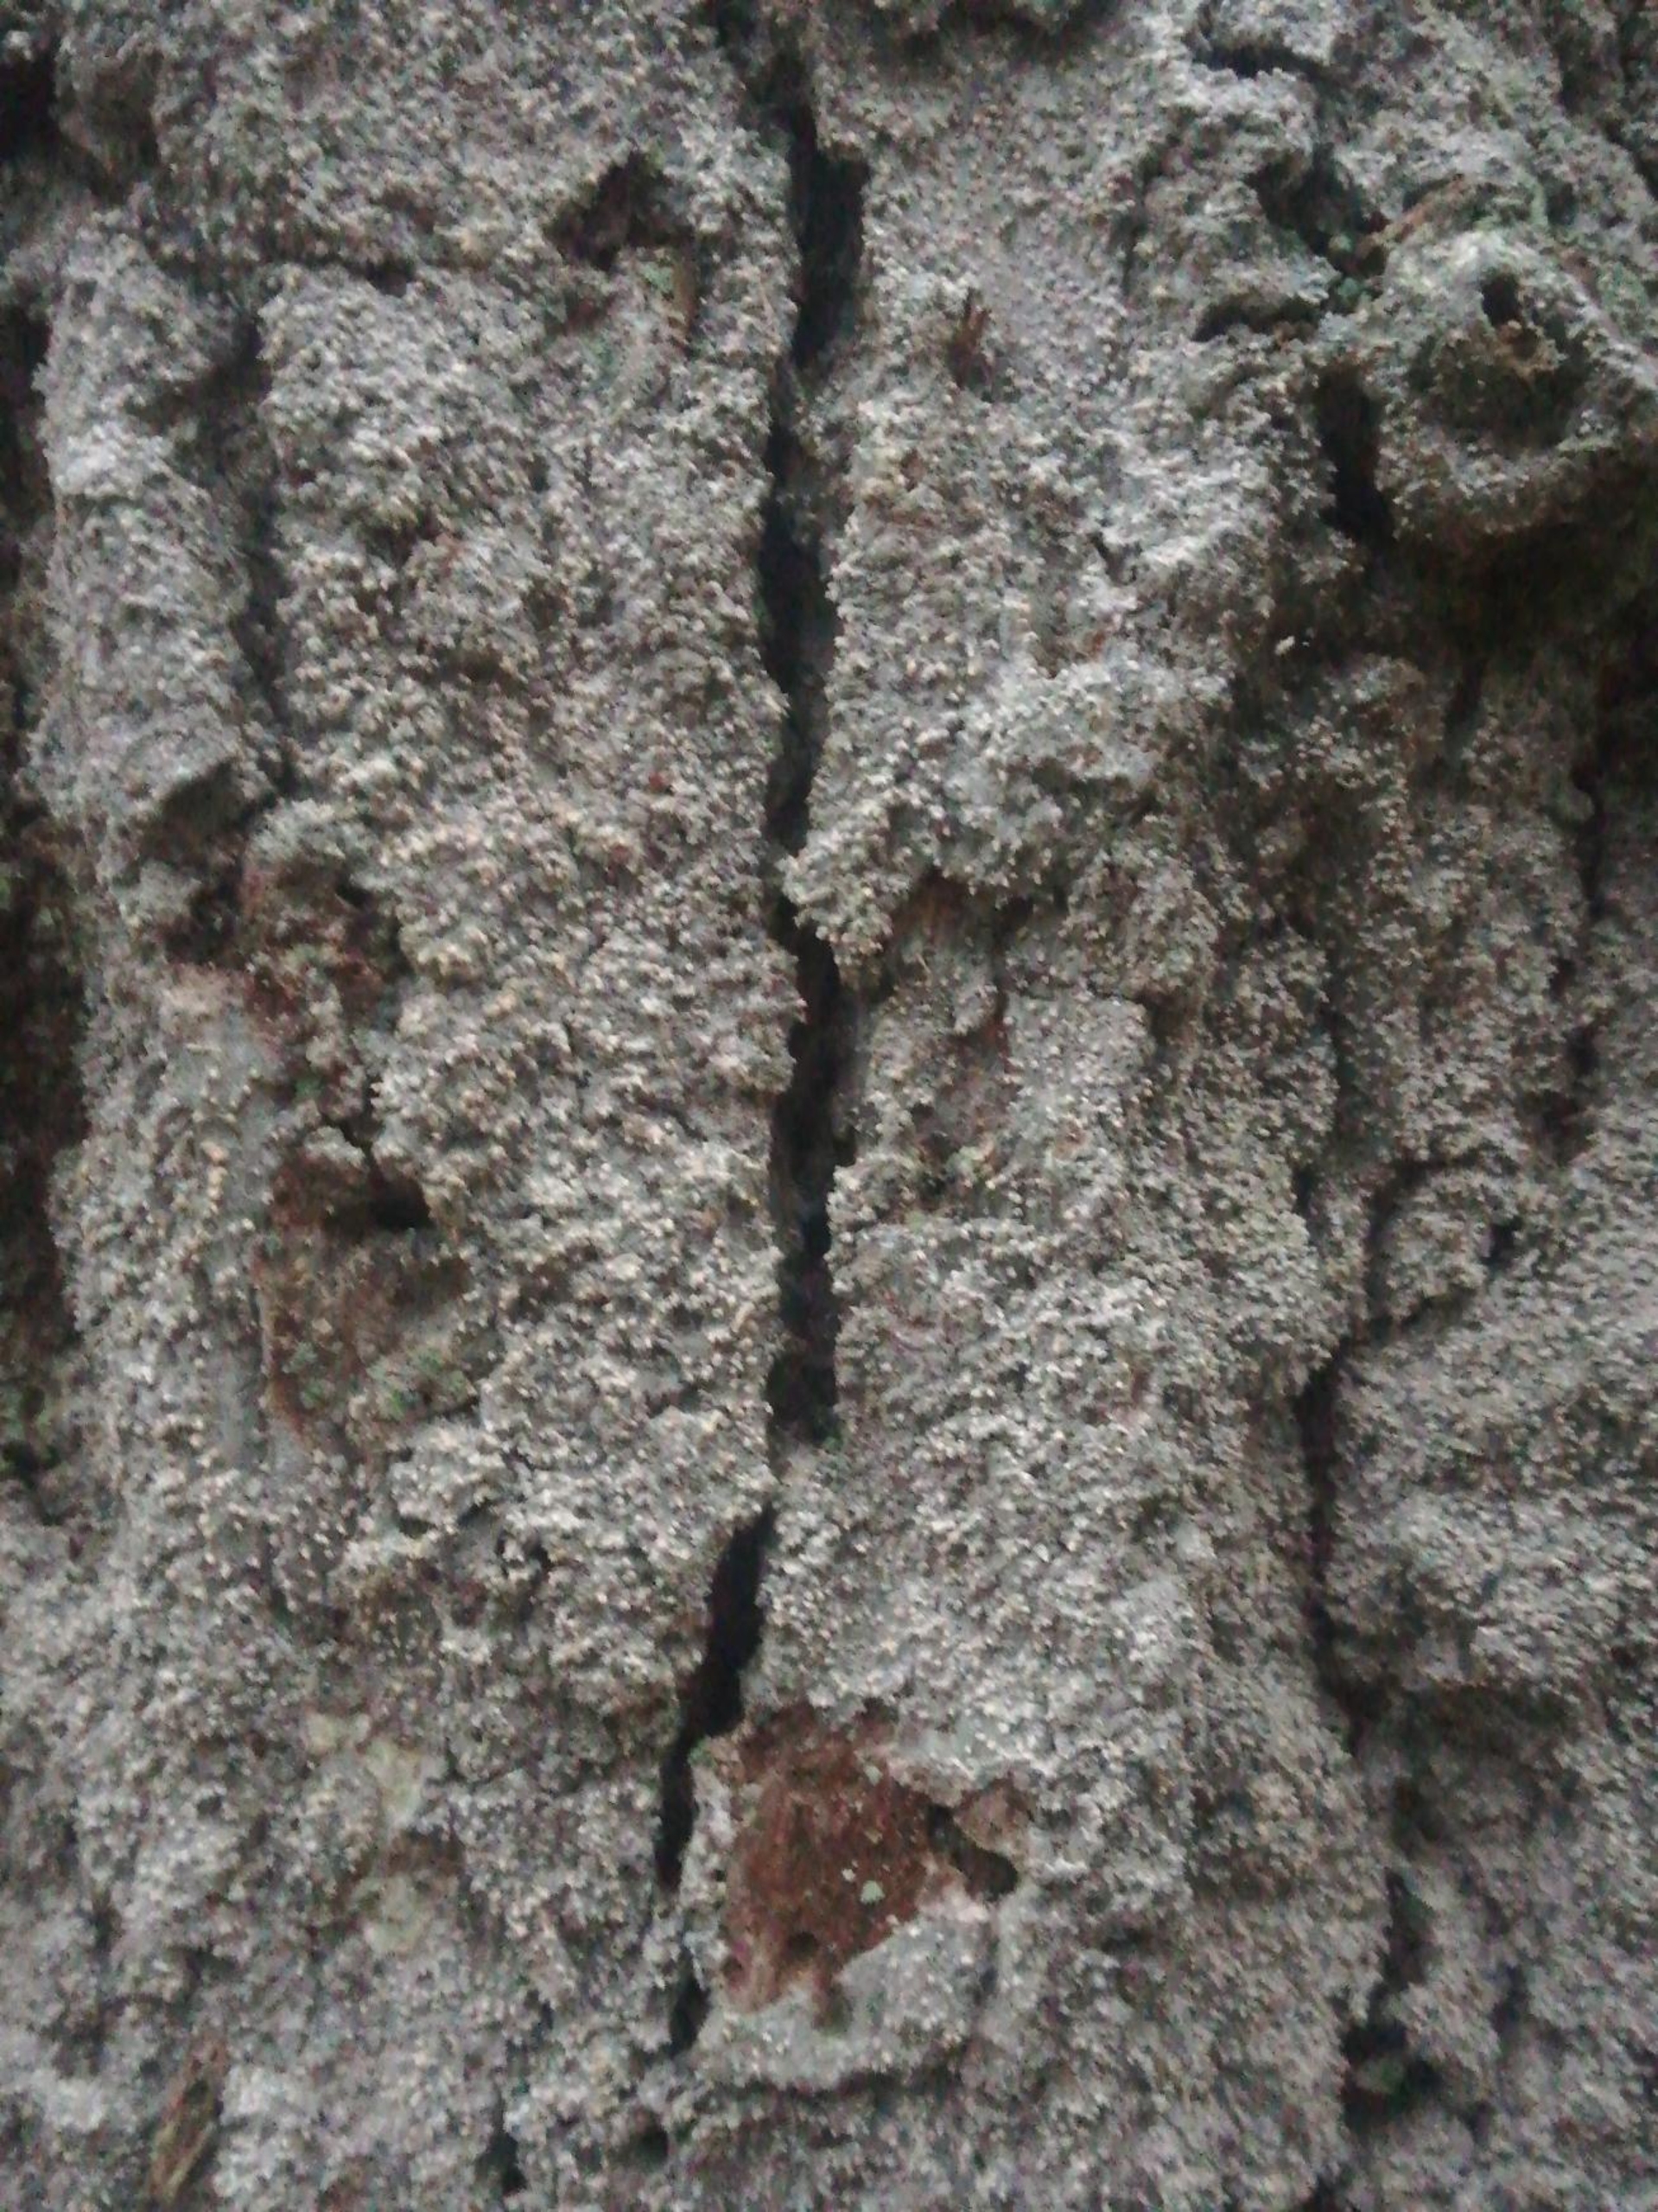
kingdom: Fungi
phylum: Ascomycota
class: Arthoniomycetes
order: Arthoniales
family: Roccellaceae
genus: Lecanactis
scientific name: Lecanactis abietina
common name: Grå dugskivelav
